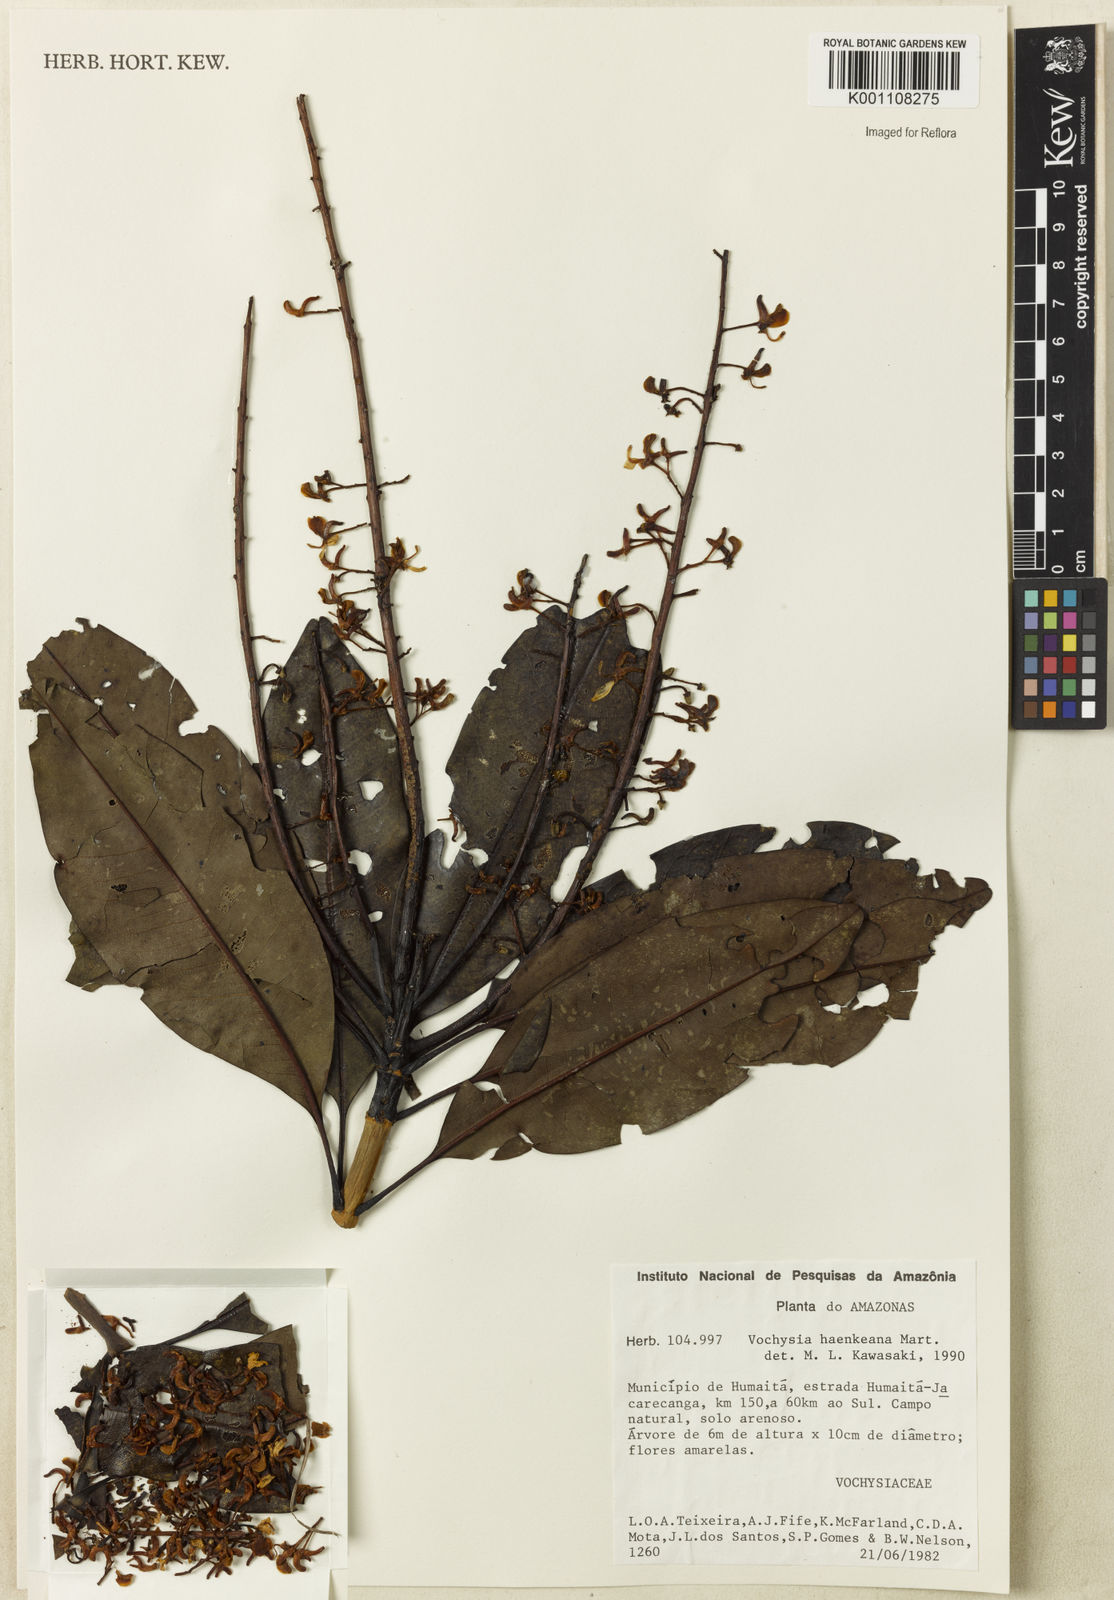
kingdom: Plantae
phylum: Tracheophyta
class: Magnoliopsida
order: Myrtales
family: Vochysiaceae
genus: Vochysia
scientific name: Vochysia haenkeana
